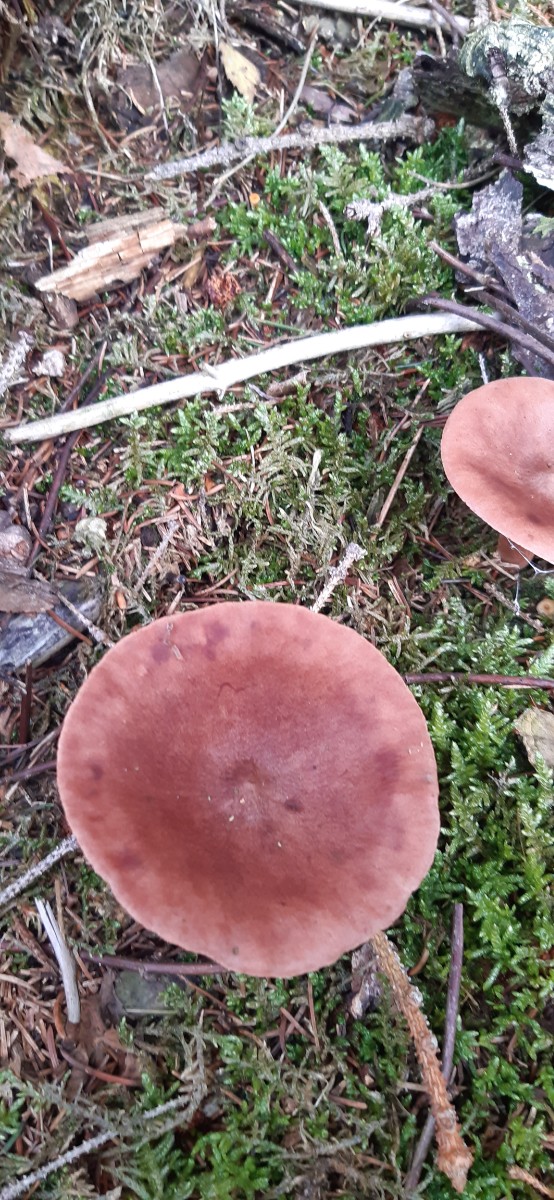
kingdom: Fungi
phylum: Basidiomycota
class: Agaricomycetes
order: Russulales
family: Russulaceae
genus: Lactarius
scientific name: Lactarius
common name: mælkehat
